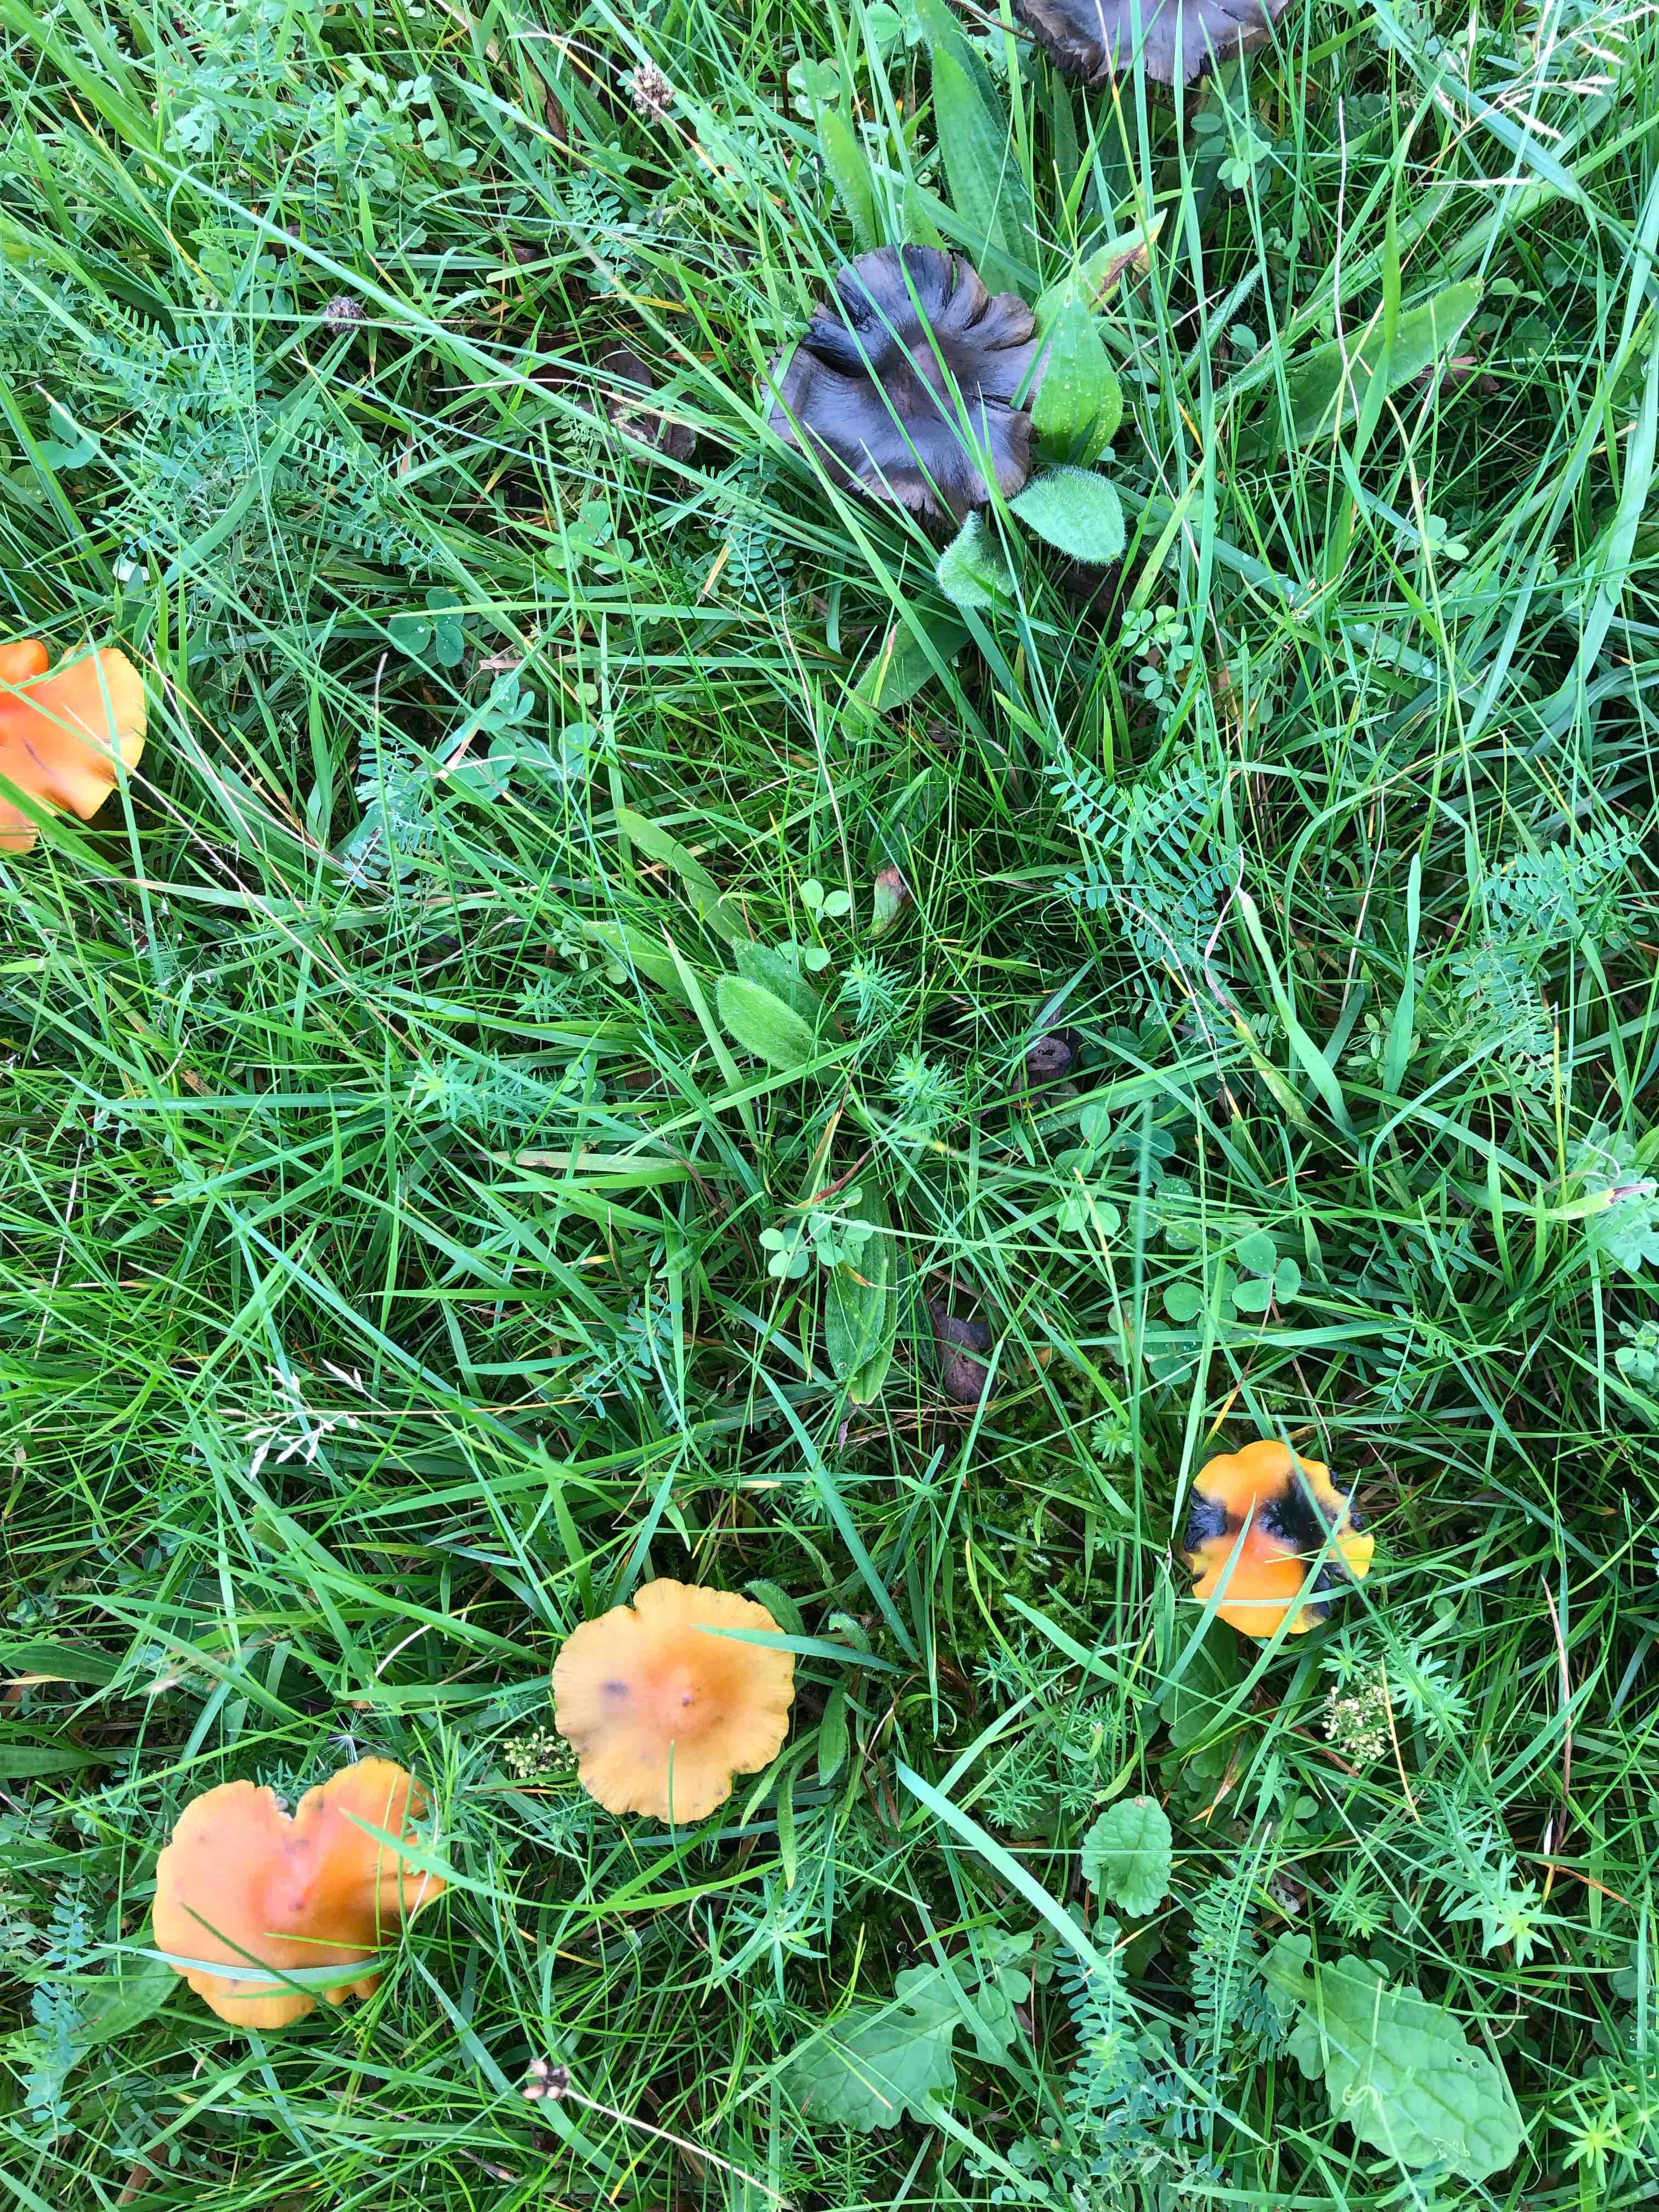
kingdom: Fungi
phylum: Basidiomycota
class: Agaricomycetes
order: Agaricales
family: Hygrophoraceae
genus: Hygrocybe
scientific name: Hygrocybe conica
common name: kegle-vokshat
